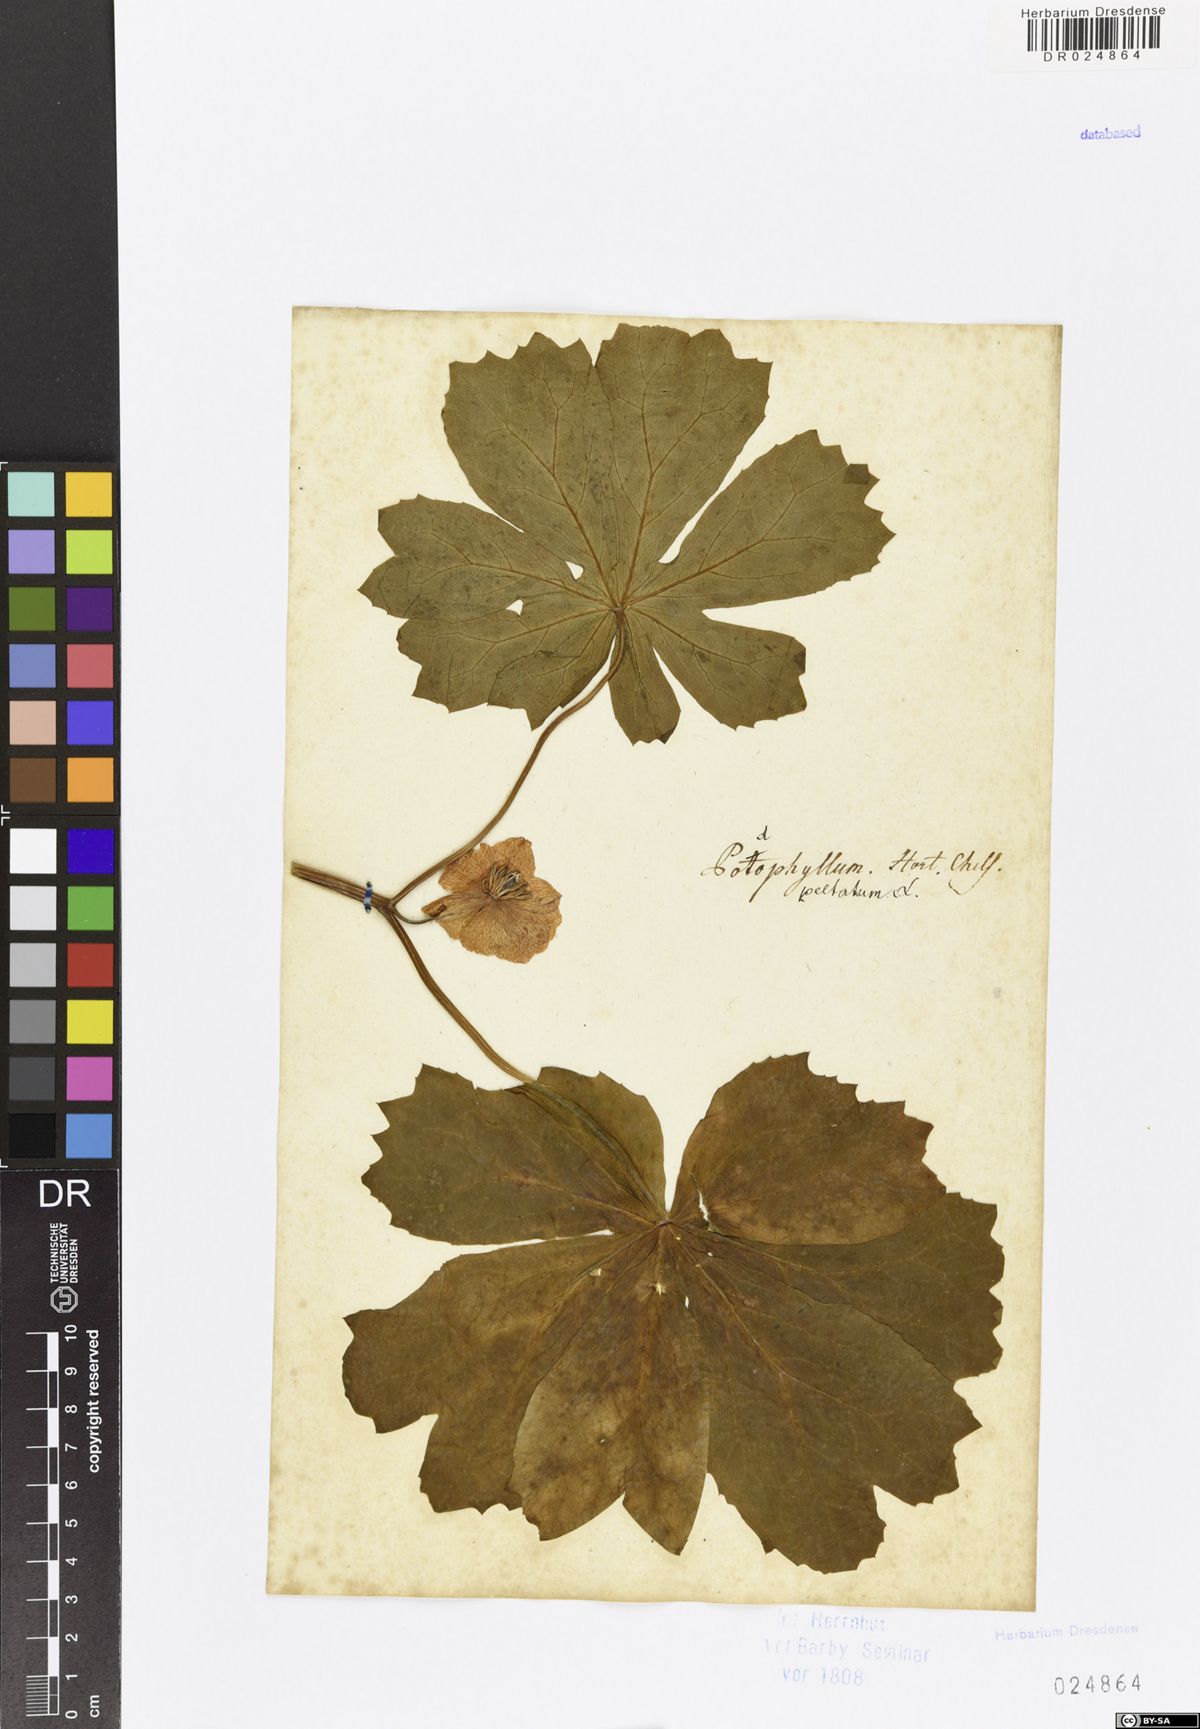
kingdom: Plantae
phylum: Tracheophyta
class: Magnoliopsida
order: Ranunculales
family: Berberidaceae
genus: Podophyllum
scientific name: Podophyllum peltatum
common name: Wild mandrake
